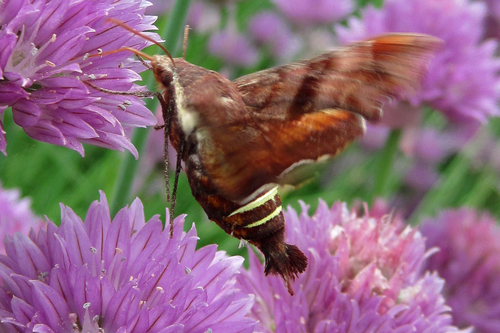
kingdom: Animalia
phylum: Arthropoda
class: Insecta
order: Lepidoptera
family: Sphingidae
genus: Amphion
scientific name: Amphion floridensis
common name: Nessus sphinx
